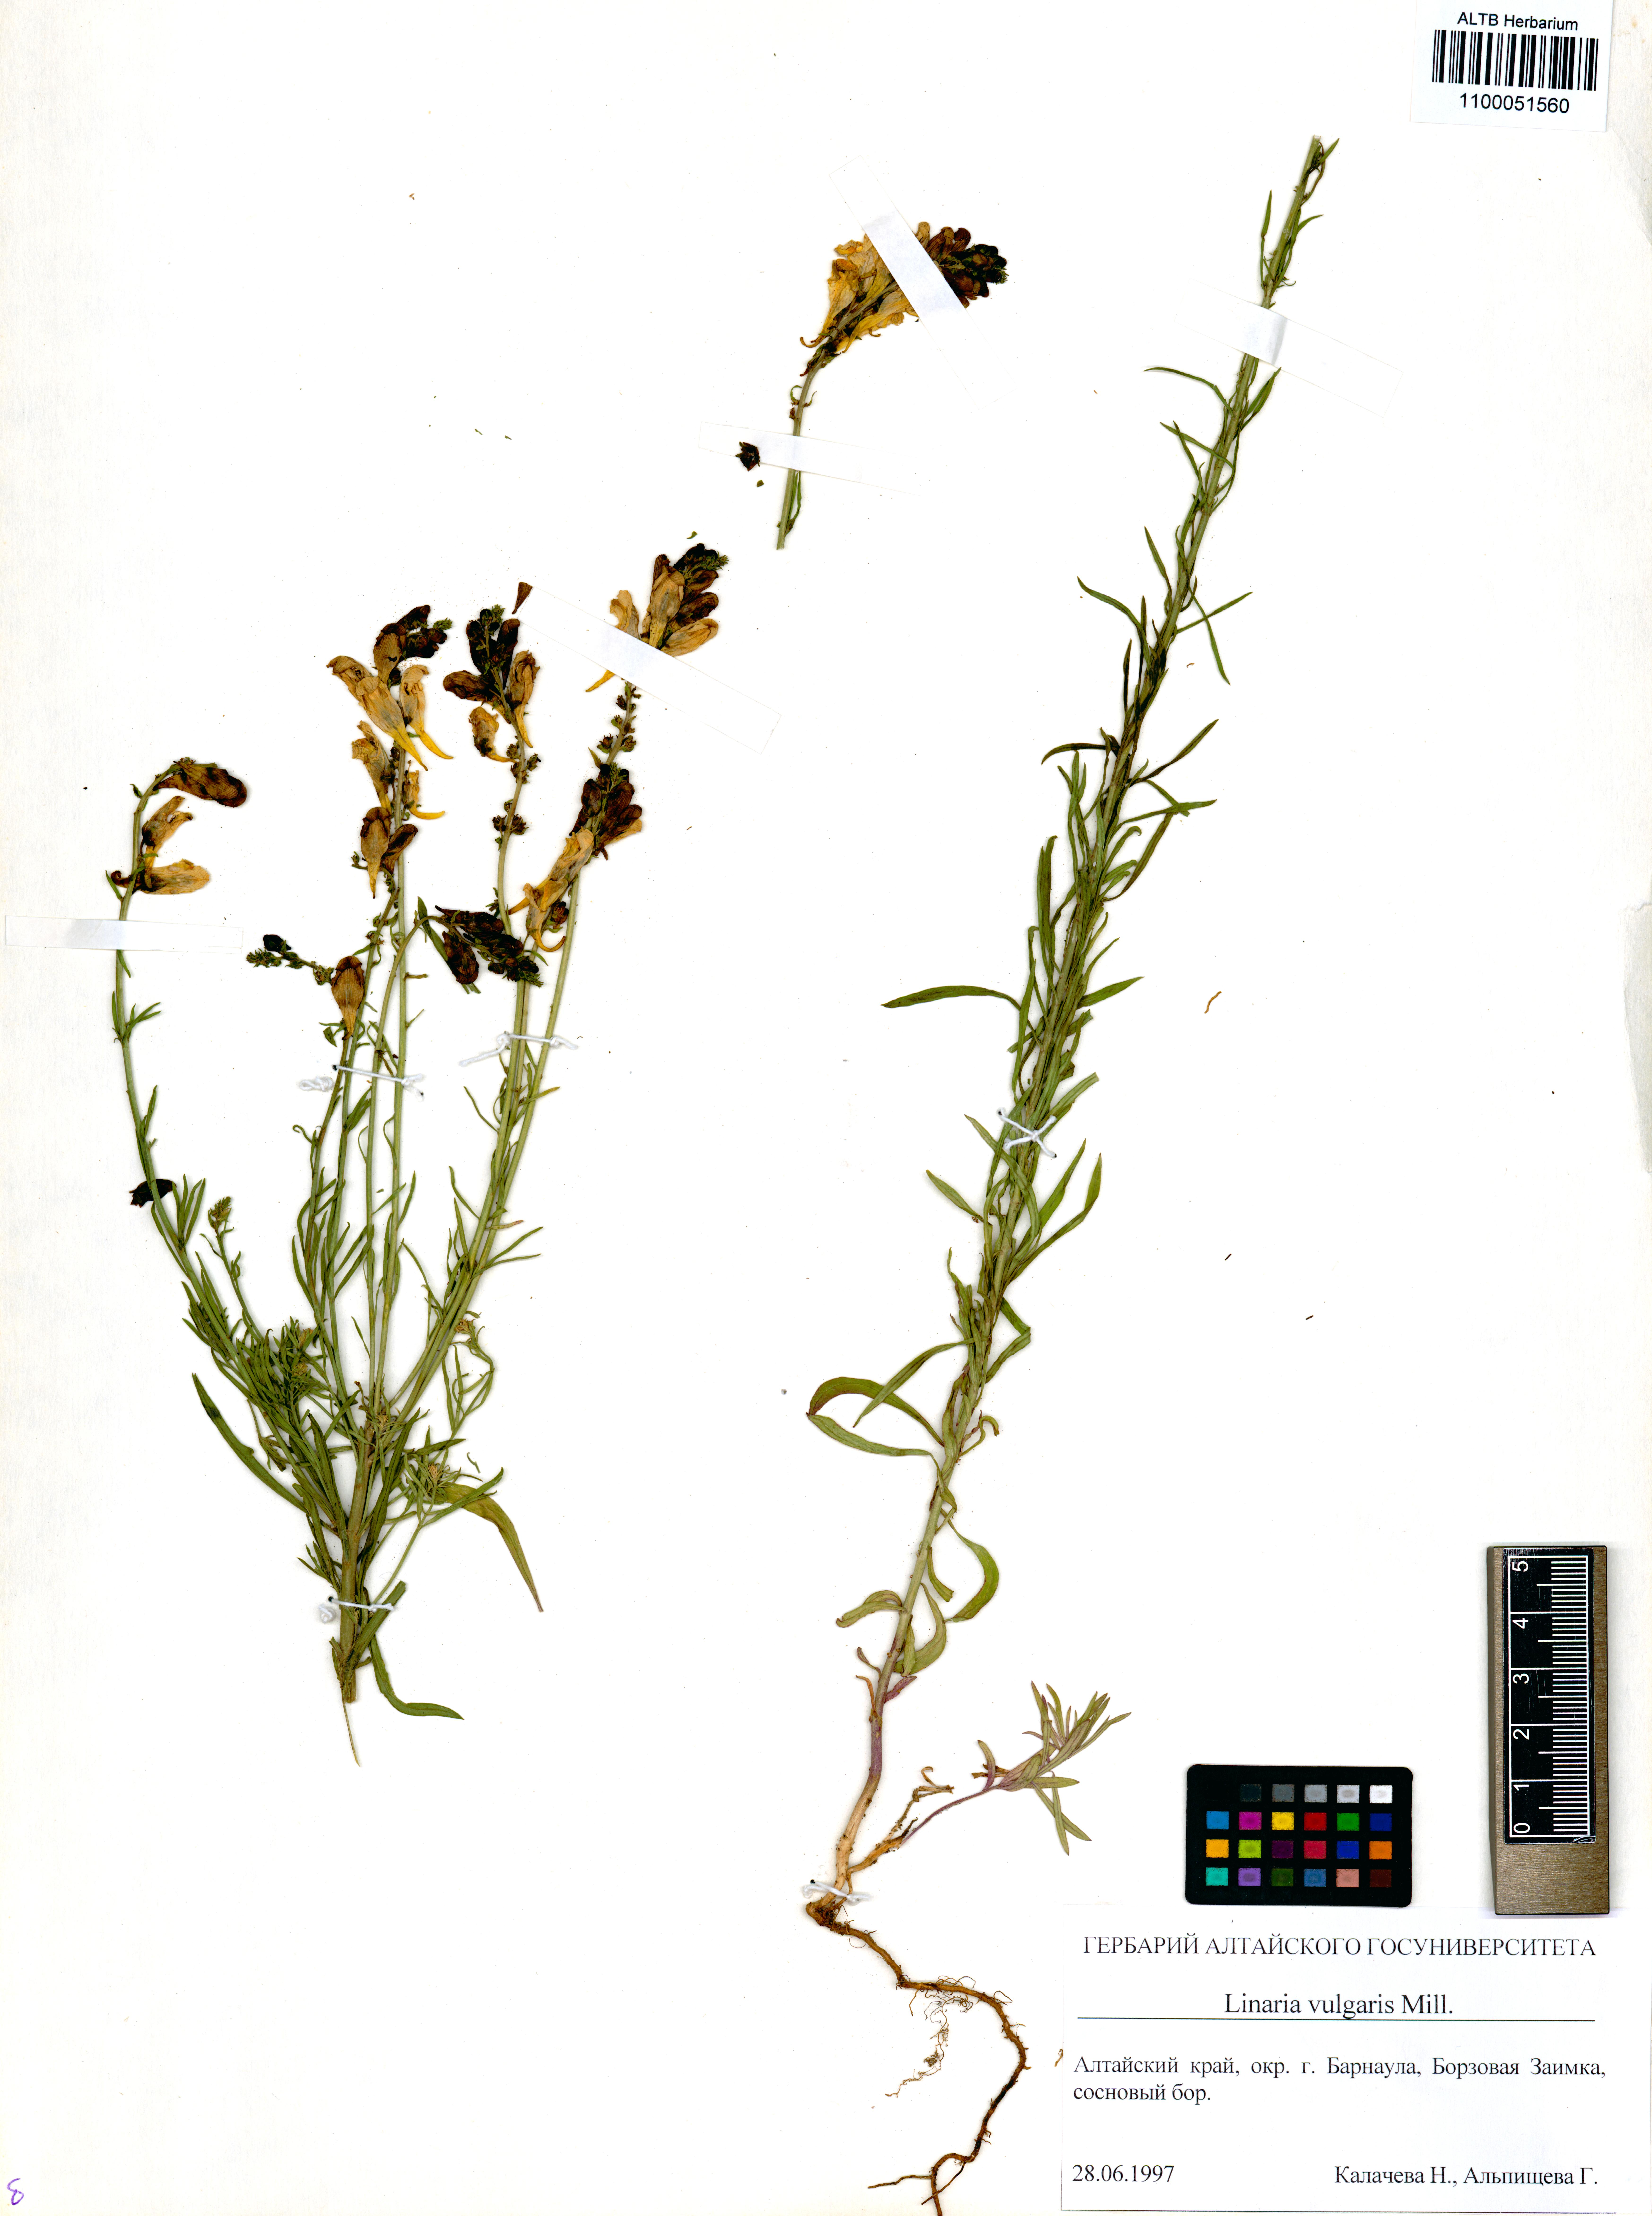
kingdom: Plantae
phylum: Tracheophyta
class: Magnoliopsida
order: Lamiales
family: Plantaginaceae
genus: Linaria
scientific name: Linaria vulgaris
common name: Butter and eggs
